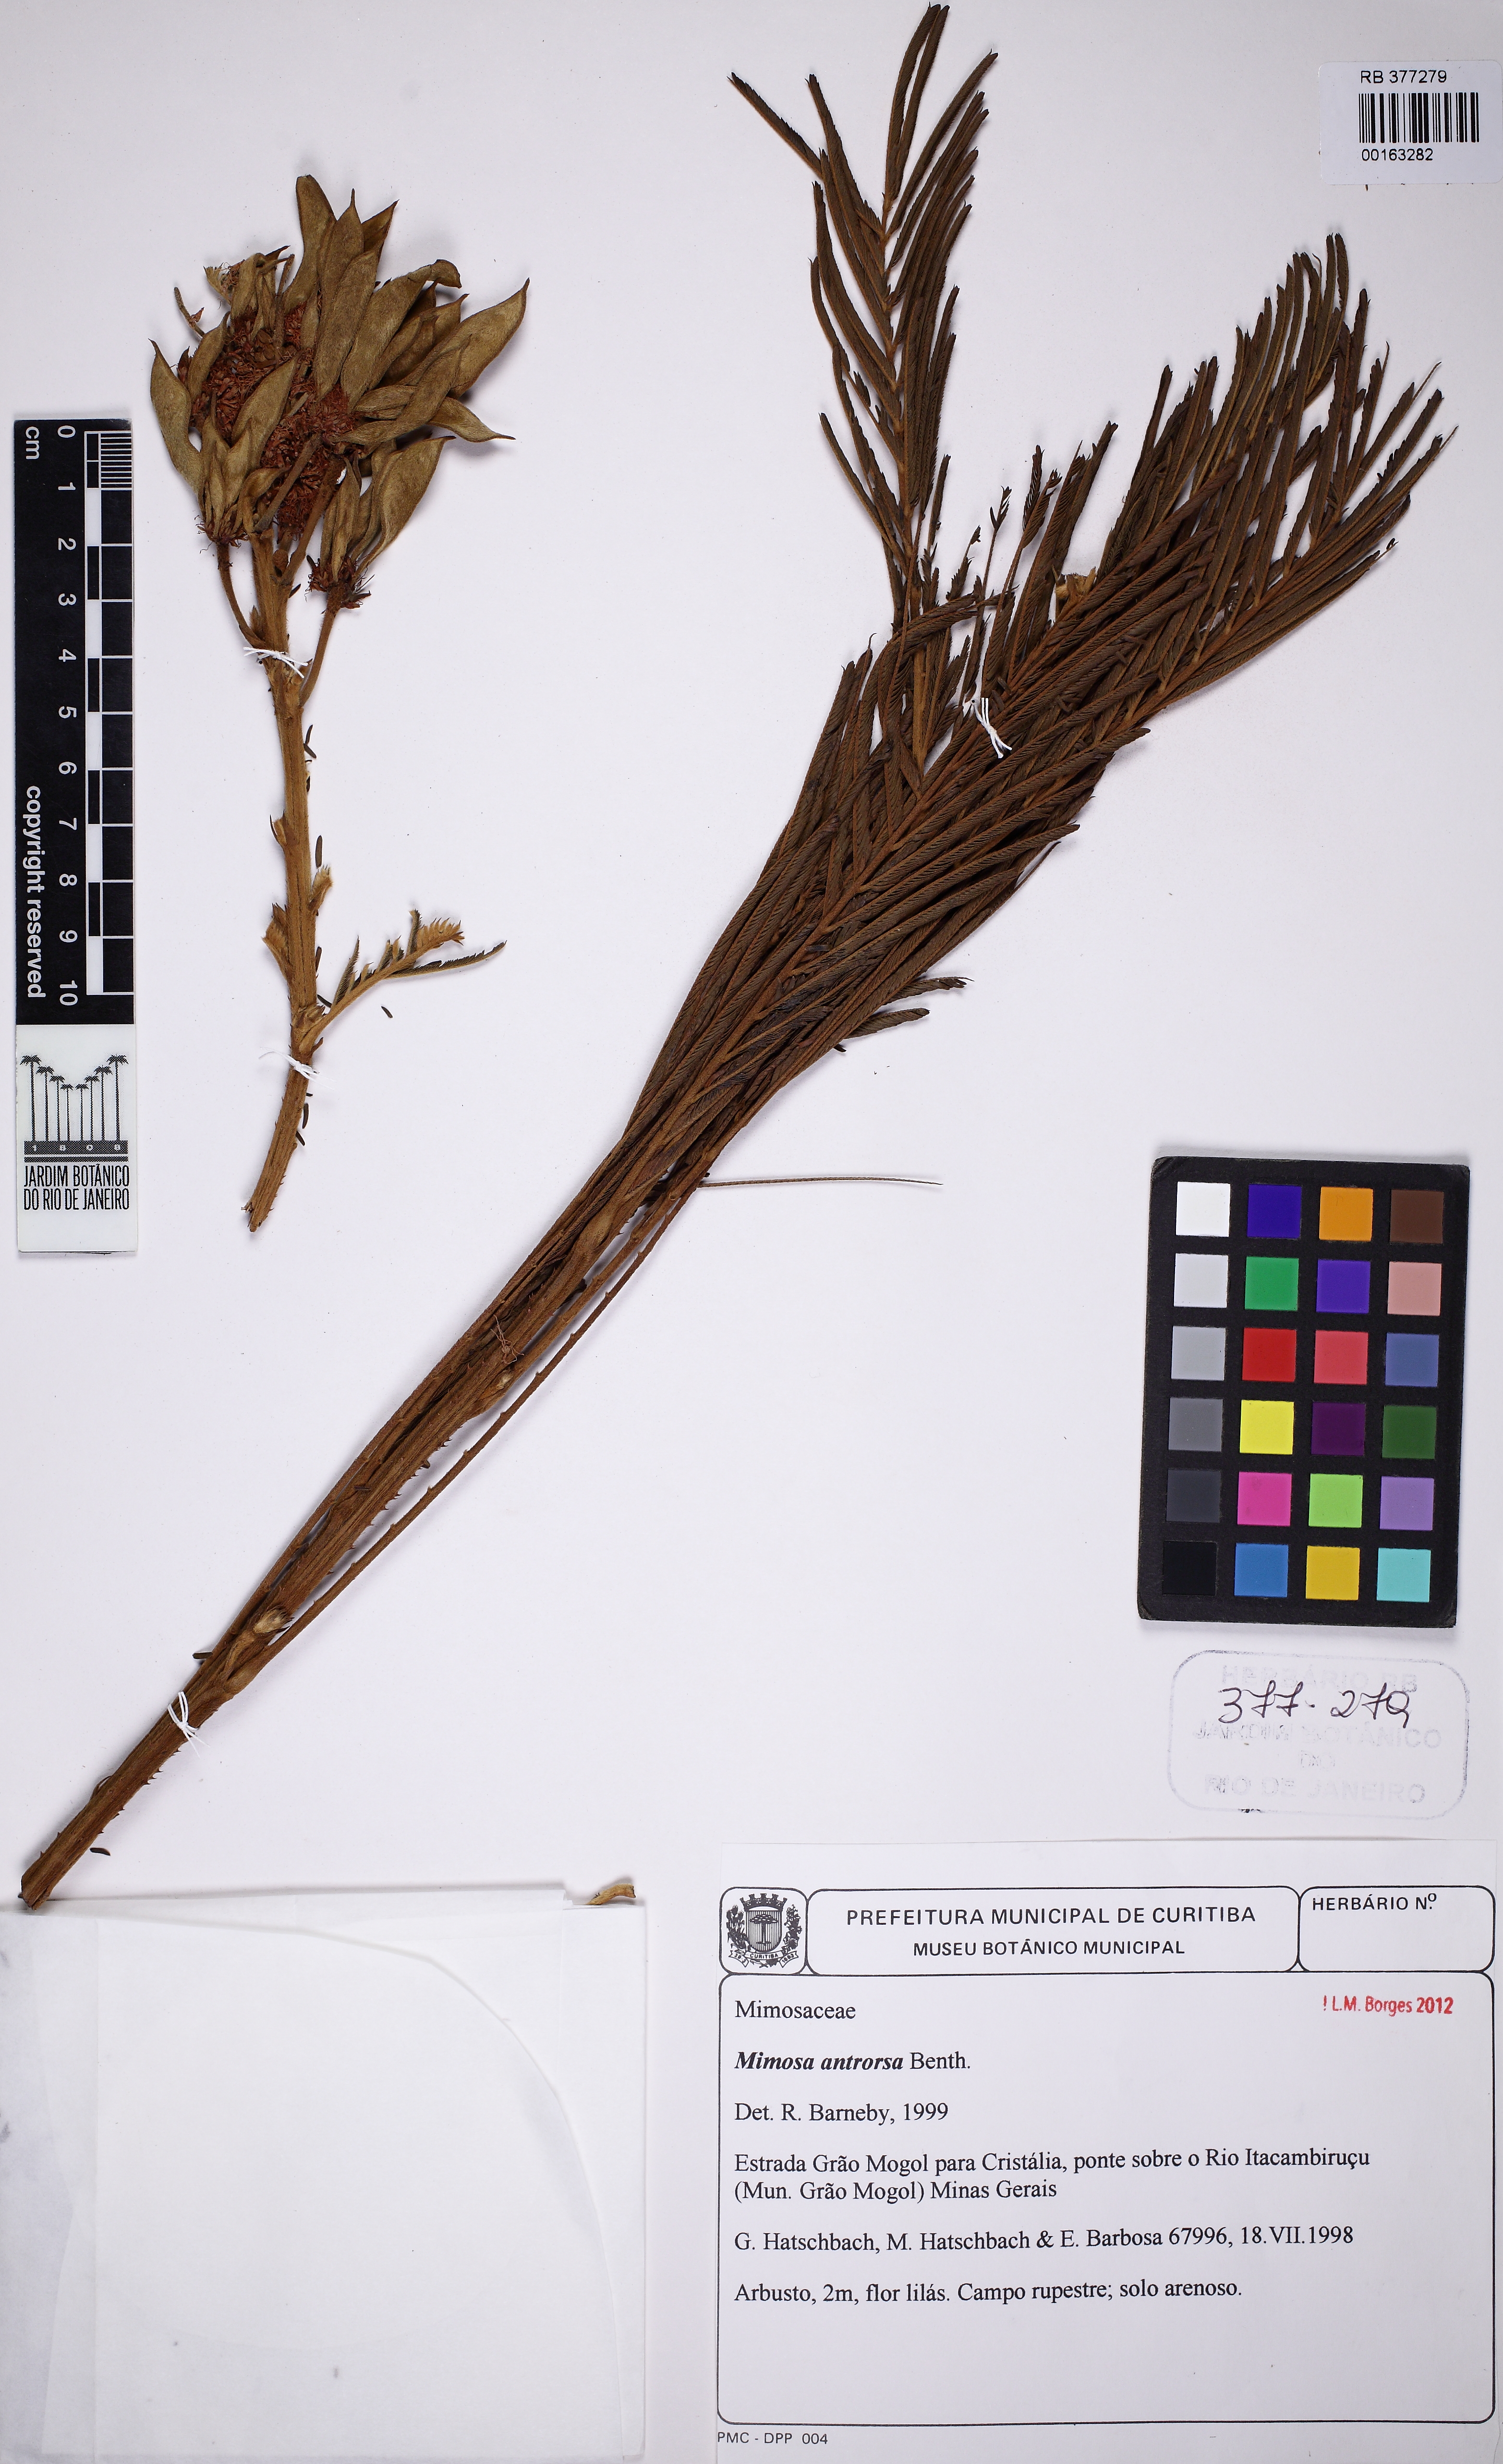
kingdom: Plantae
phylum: Tracheophyta
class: Magnoliopsida
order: Fabales
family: Fabaceae
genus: Mimosa
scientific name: Mimosa antrorsa
